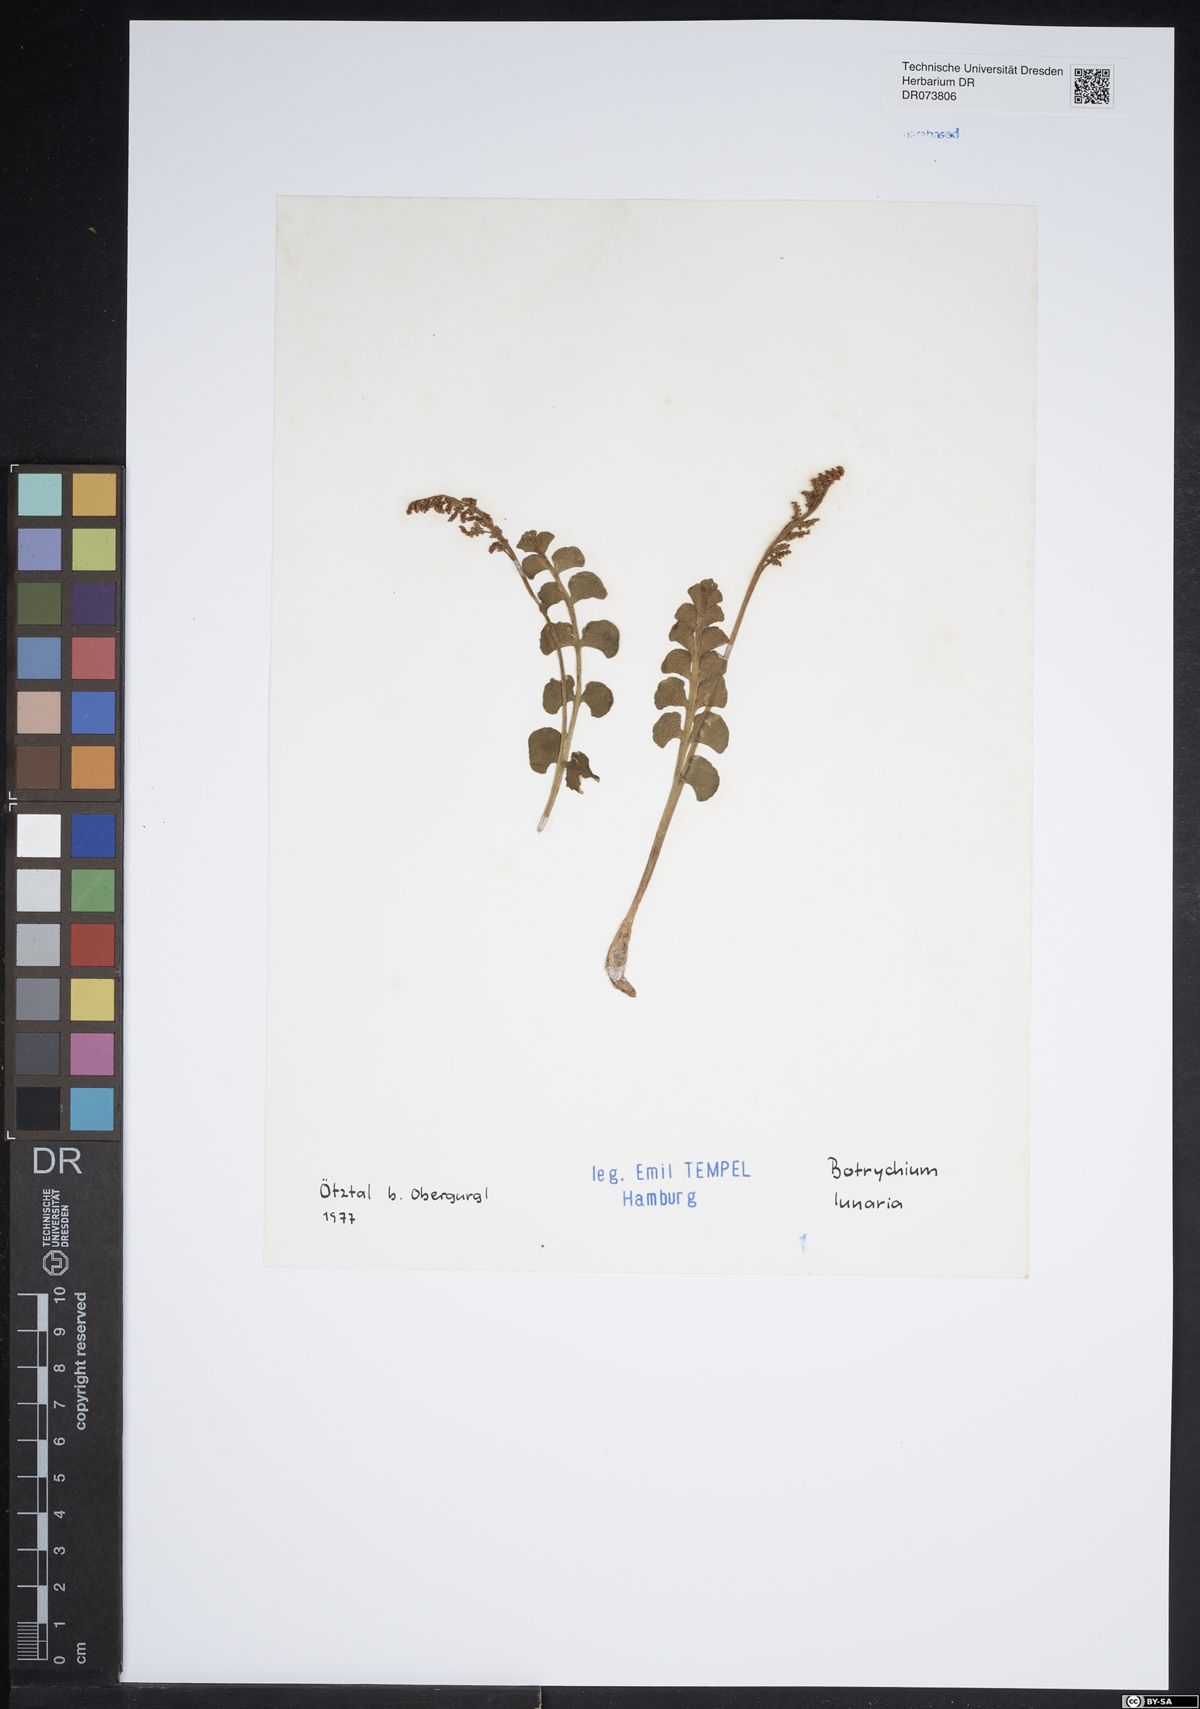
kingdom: Plantae
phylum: Tracheophyta
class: Polypodiopsida
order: Ophioglossales
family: Ophioglossaceae
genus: Botrychium
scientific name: Botrychium lunaria
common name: Moonwort
